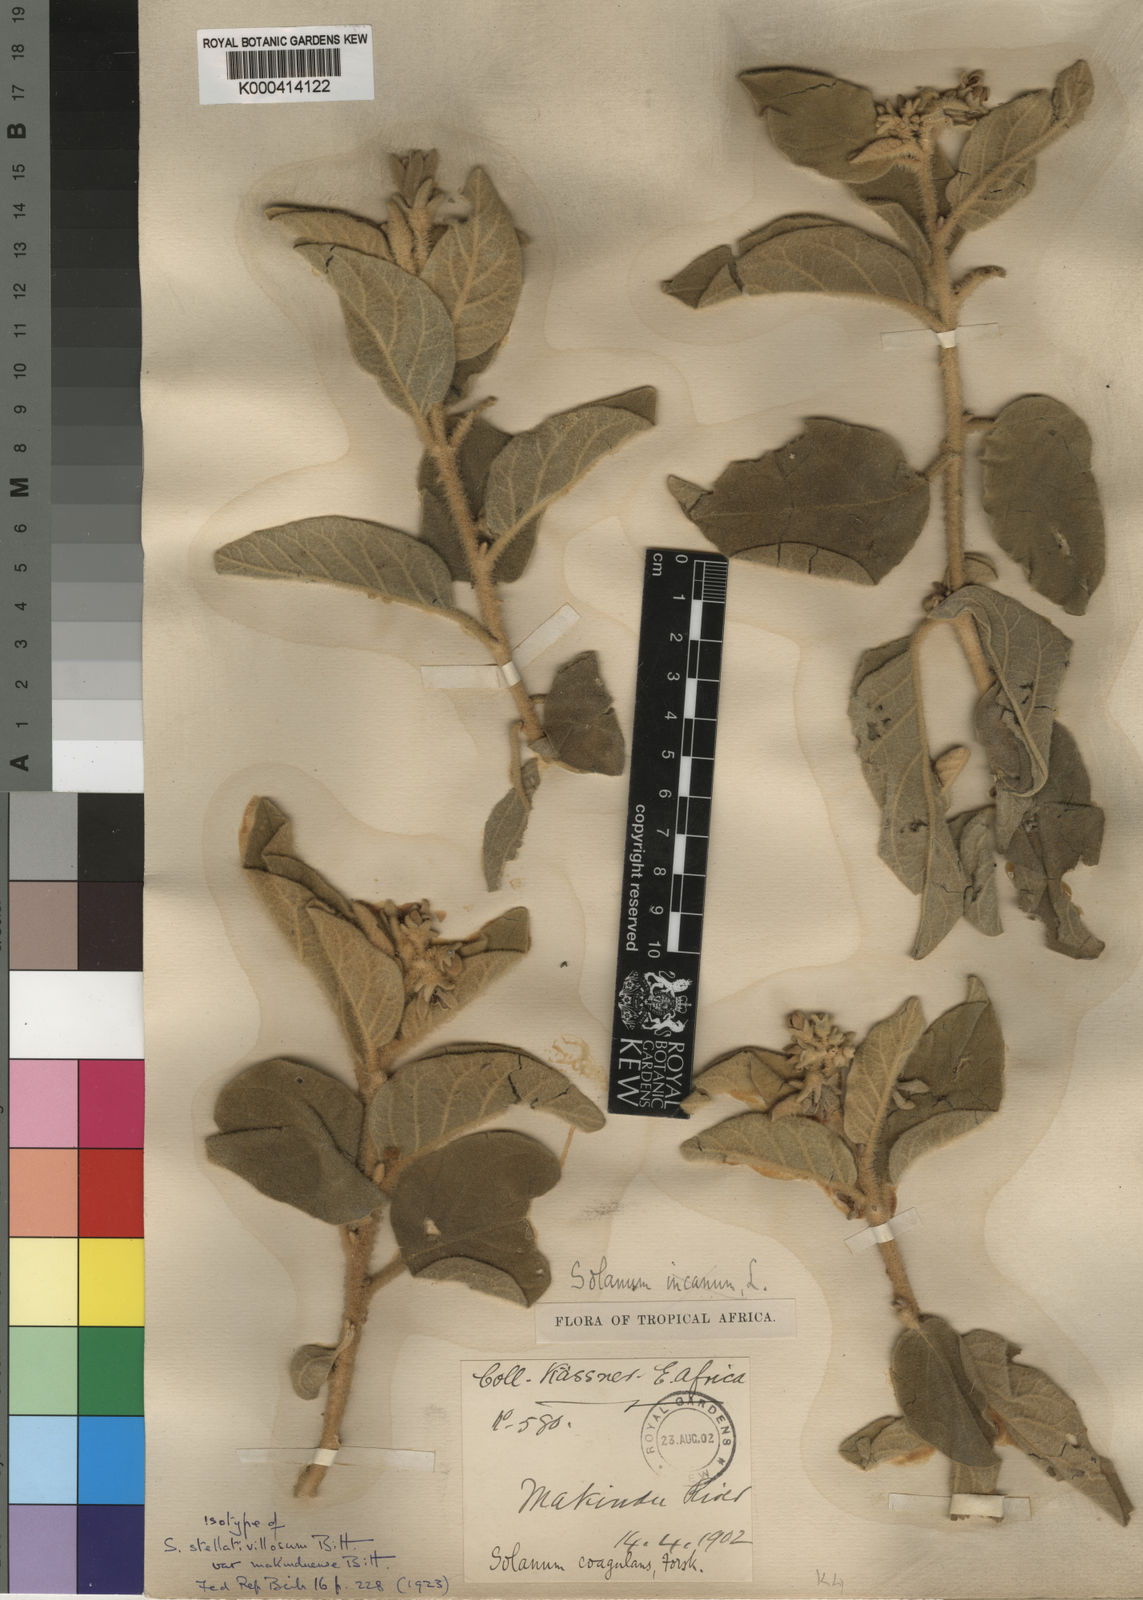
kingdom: Plantae
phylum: Tracheophyta
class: Magnoliopsida
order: Solanales
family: Solanaceae
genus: Solanum
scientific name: Solanum incanum
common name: Bitter apple
